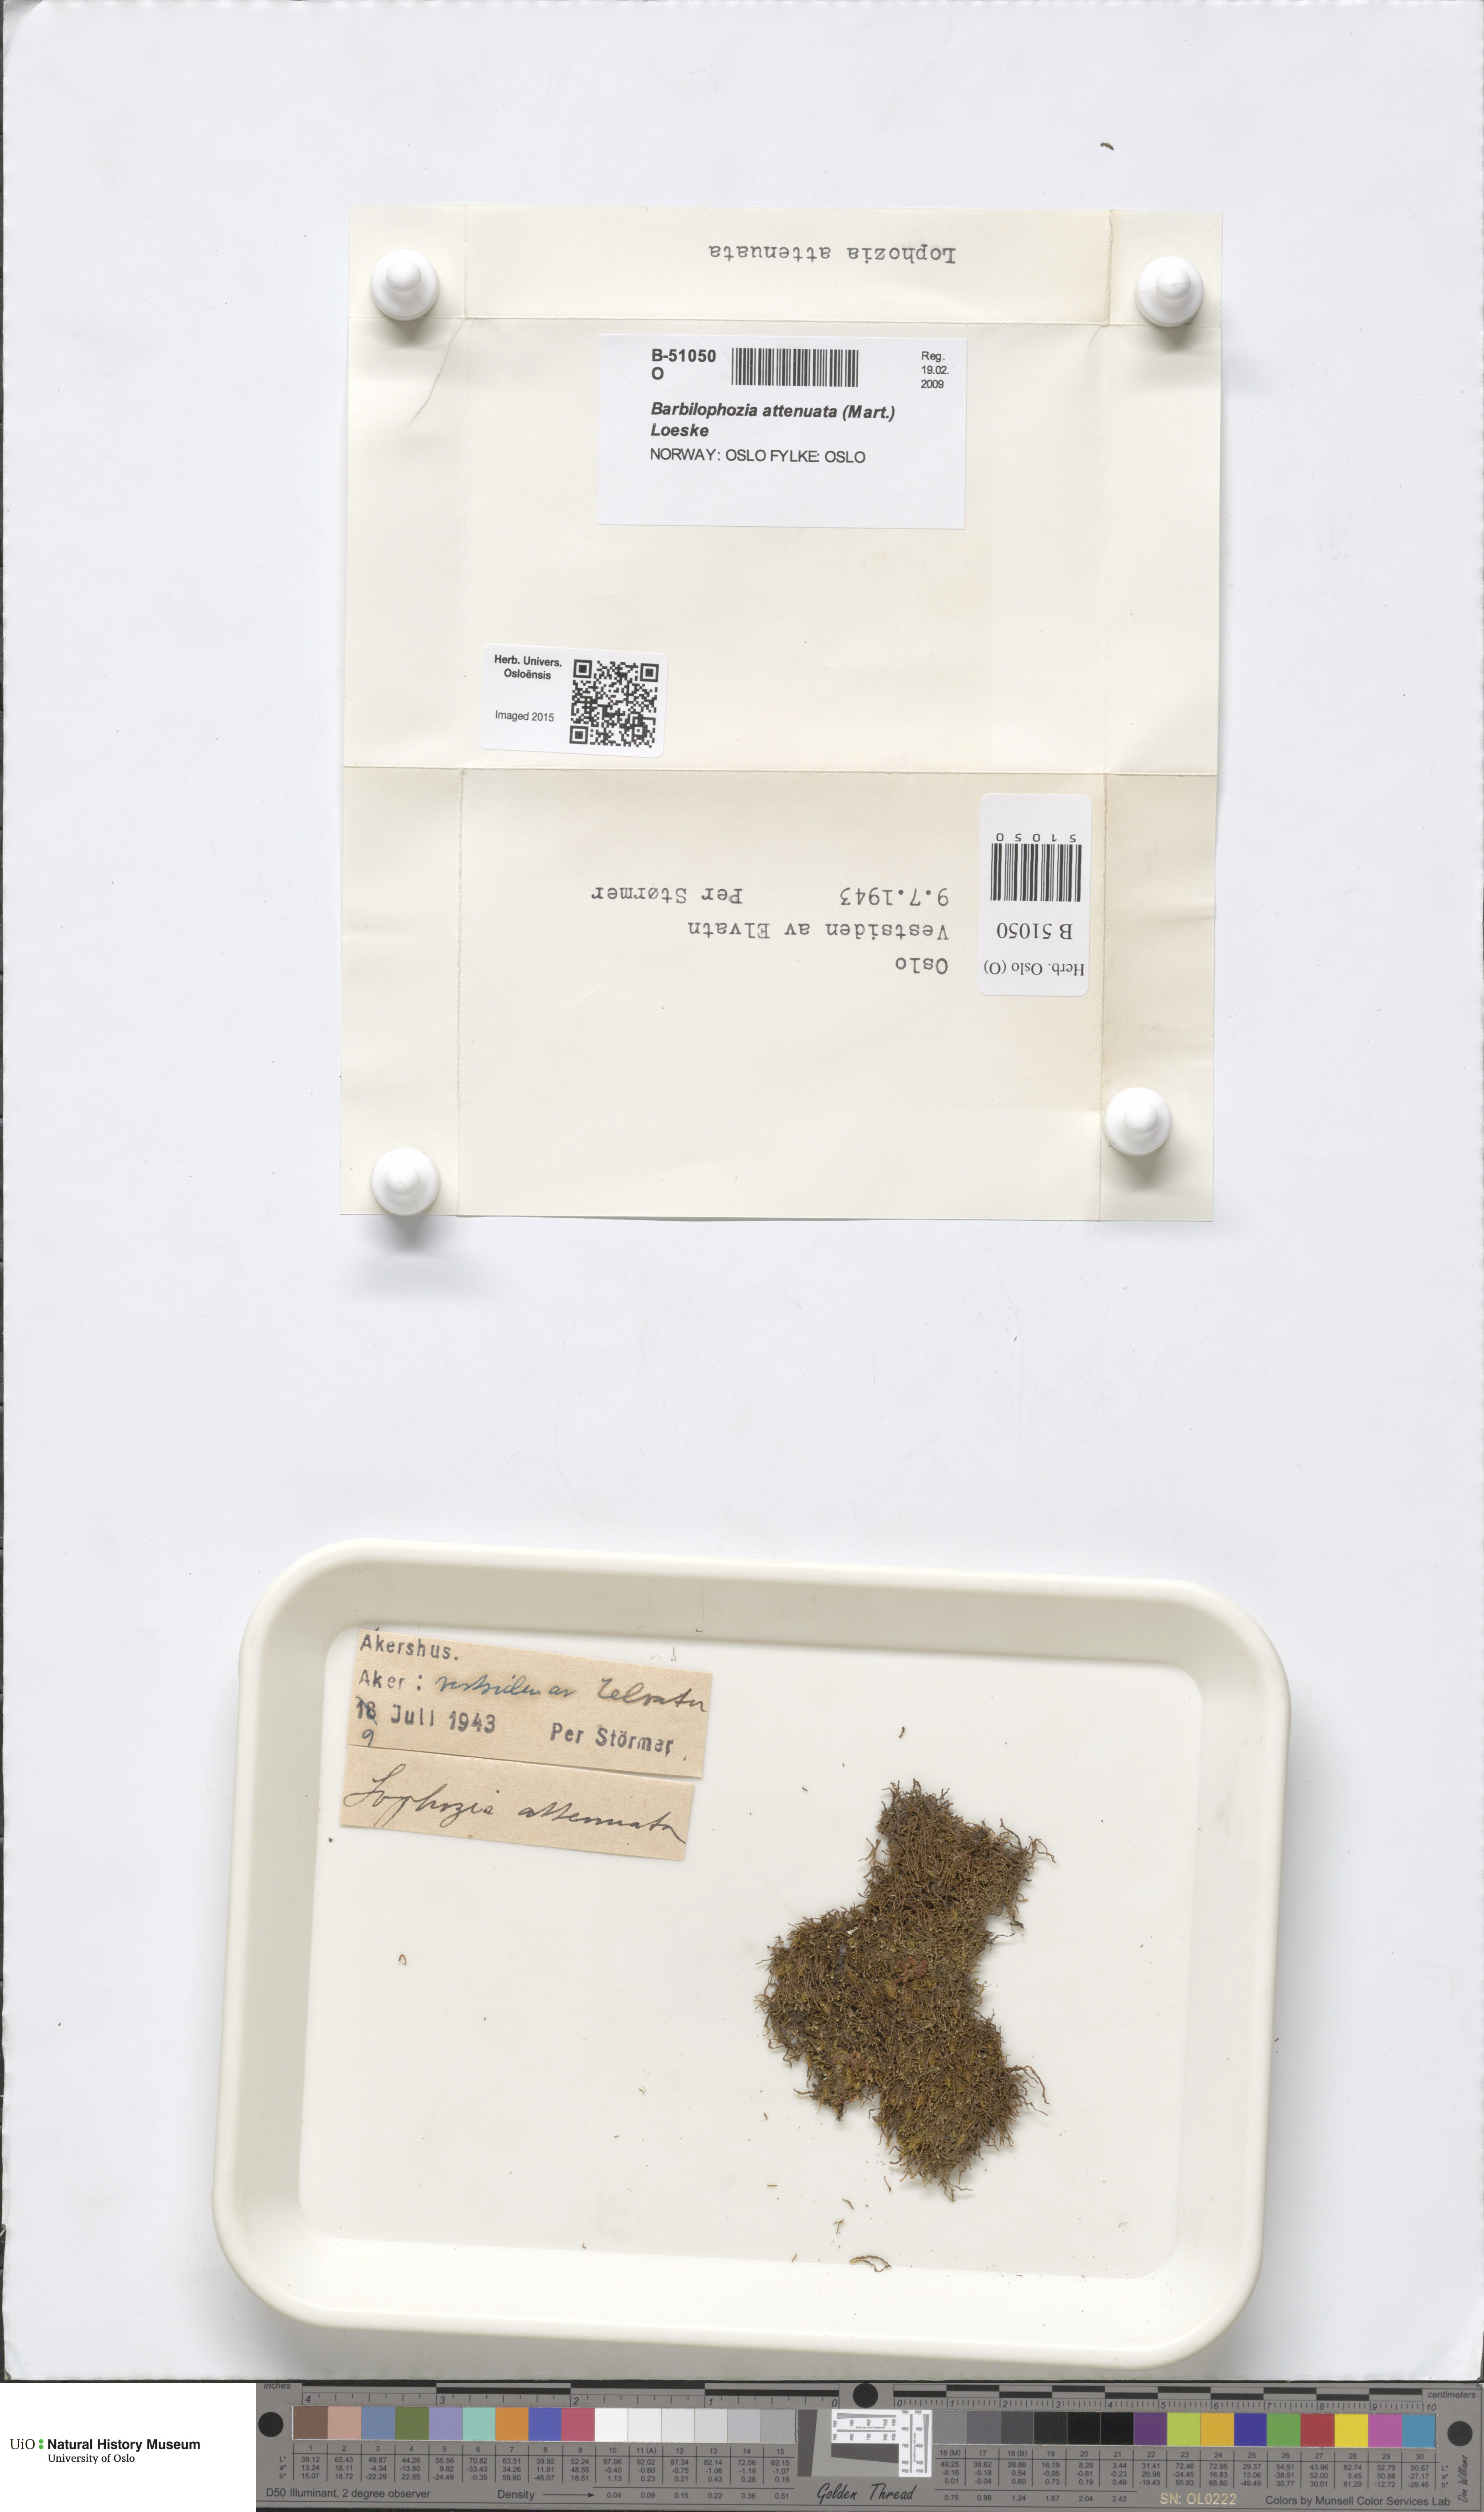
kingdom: Plantae
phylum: Marchantiophyta
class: Jungermanniopsida
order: Jungermanniales
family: Anastrophyllaceae
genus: Neoorthocaulis
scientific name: Neoorthocaulis attenuatus
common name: Trunk pawwort
